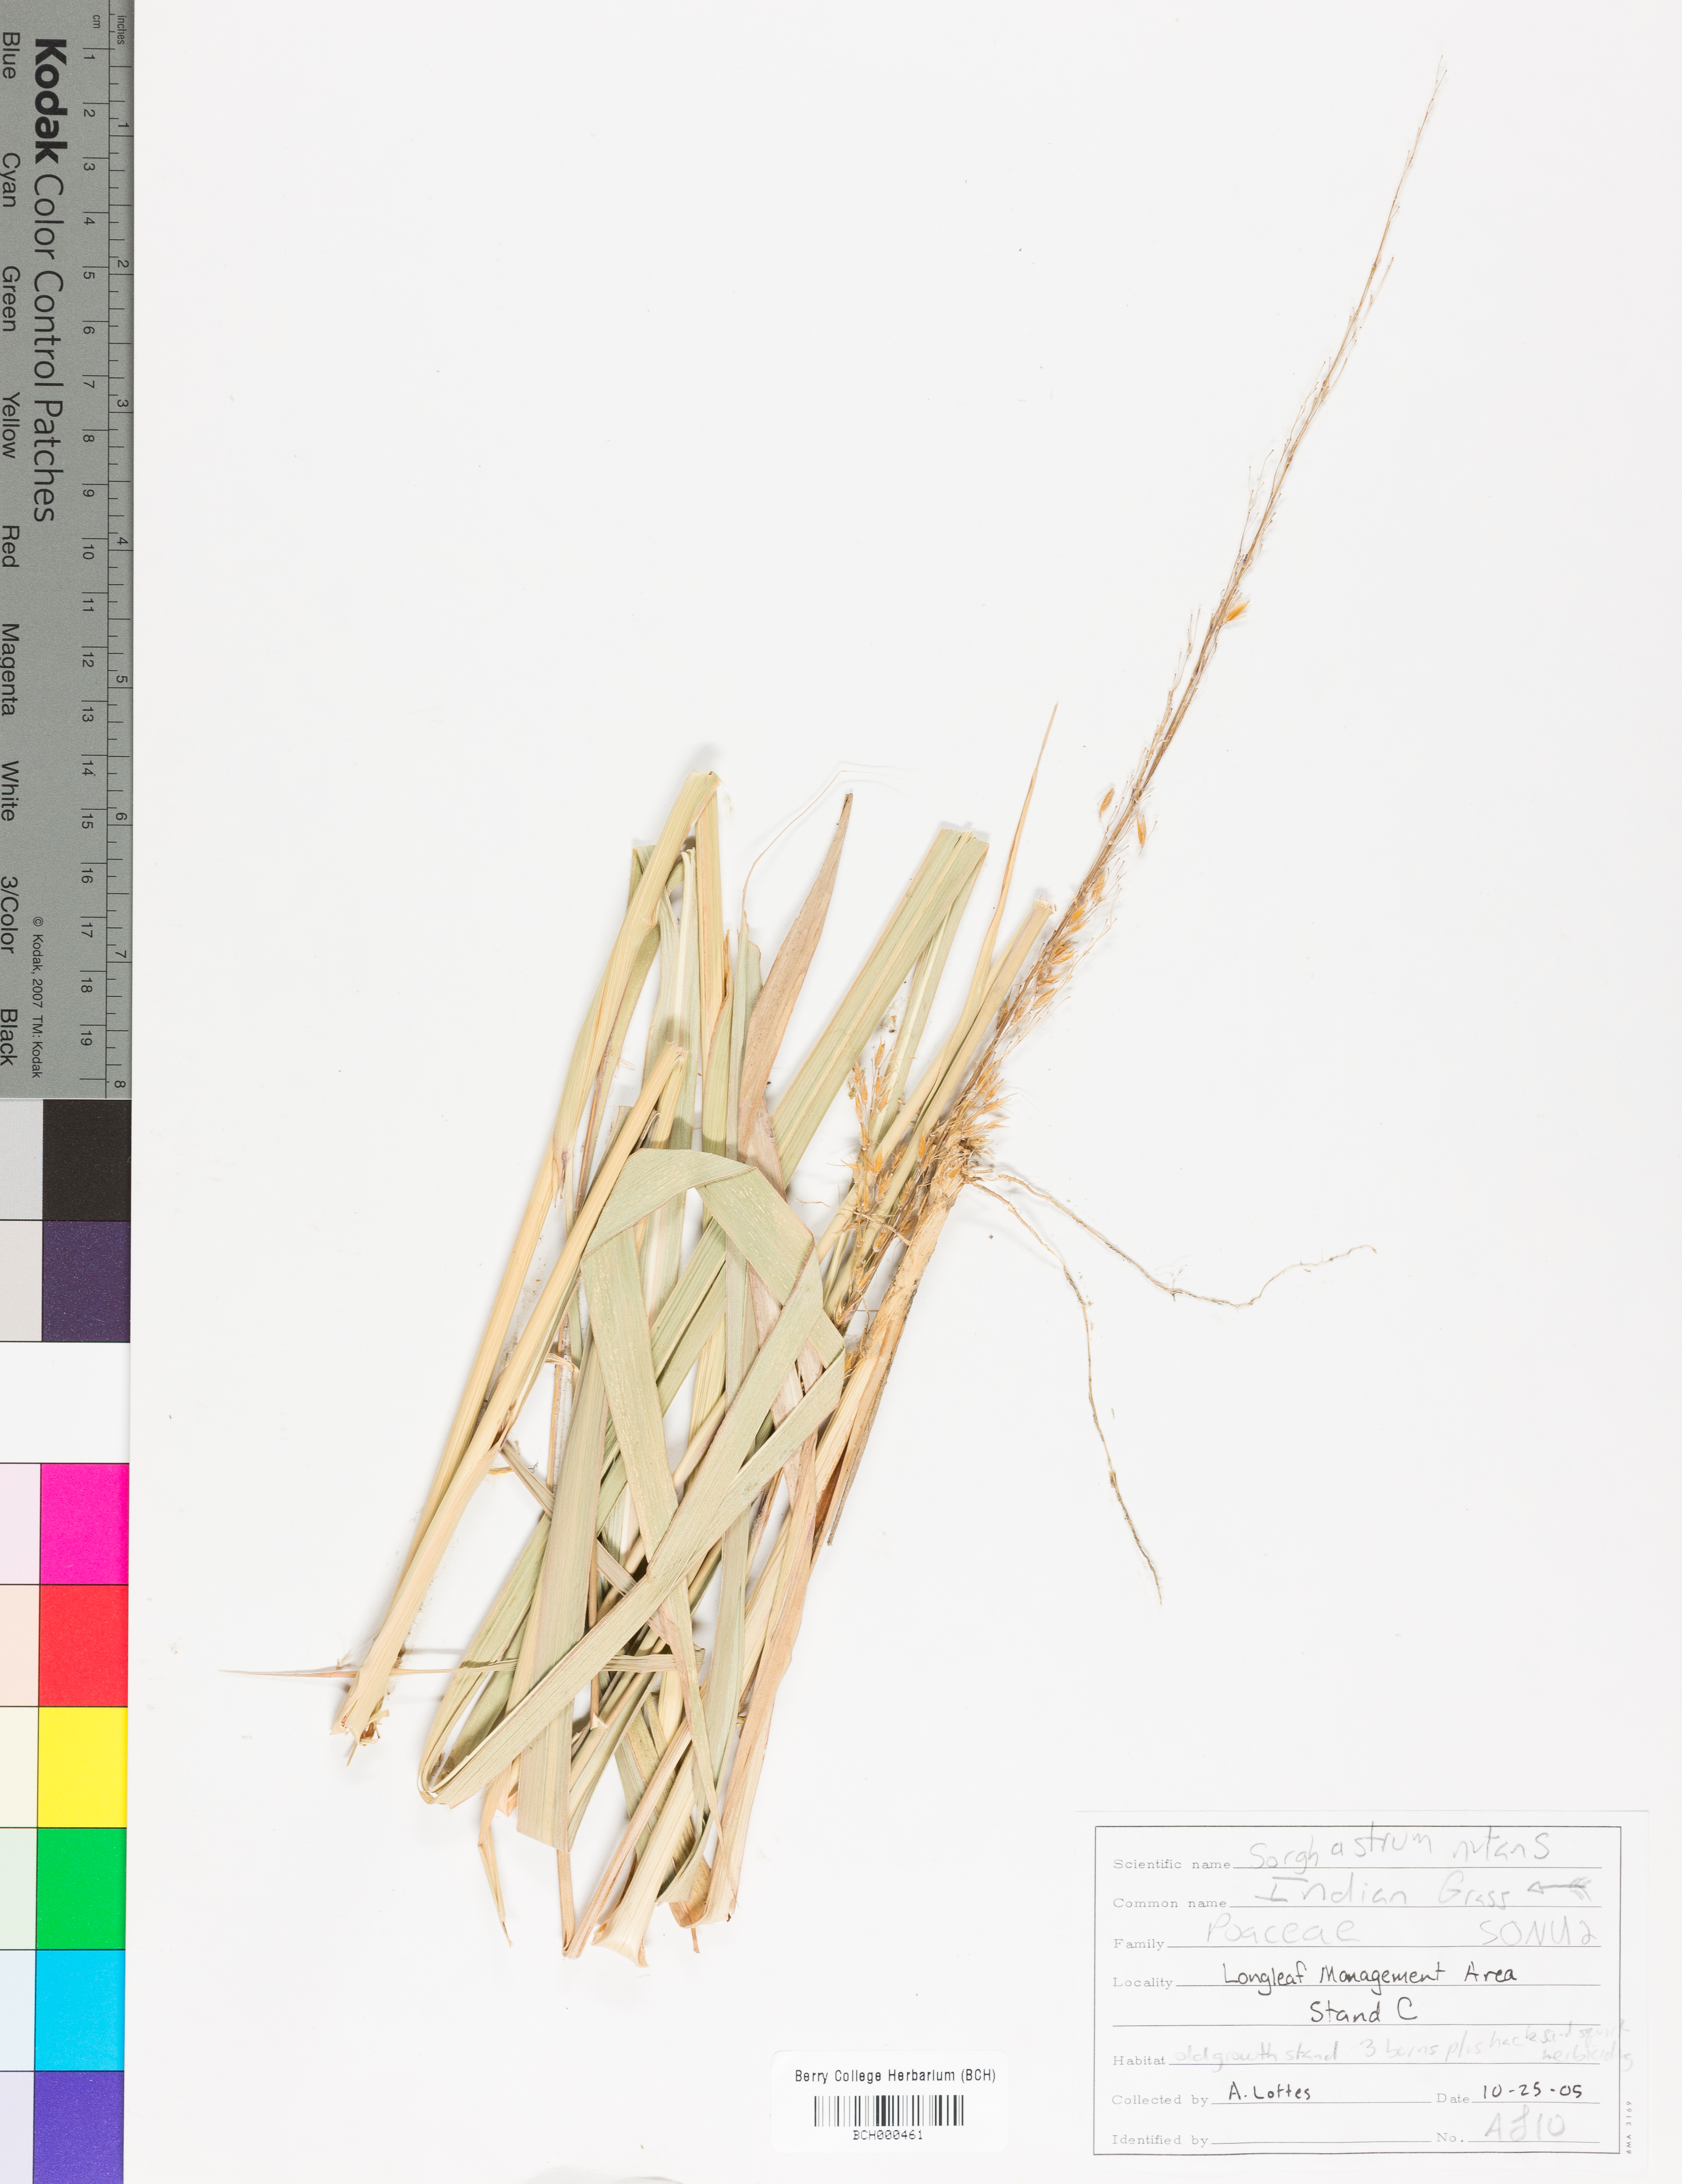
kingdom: Plantae
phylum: Tracheophyta
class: Liliopsida
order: Poales
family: Poaceae
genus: Sorghastrum
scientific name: Sorghastrum nutans
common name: Indian grass
